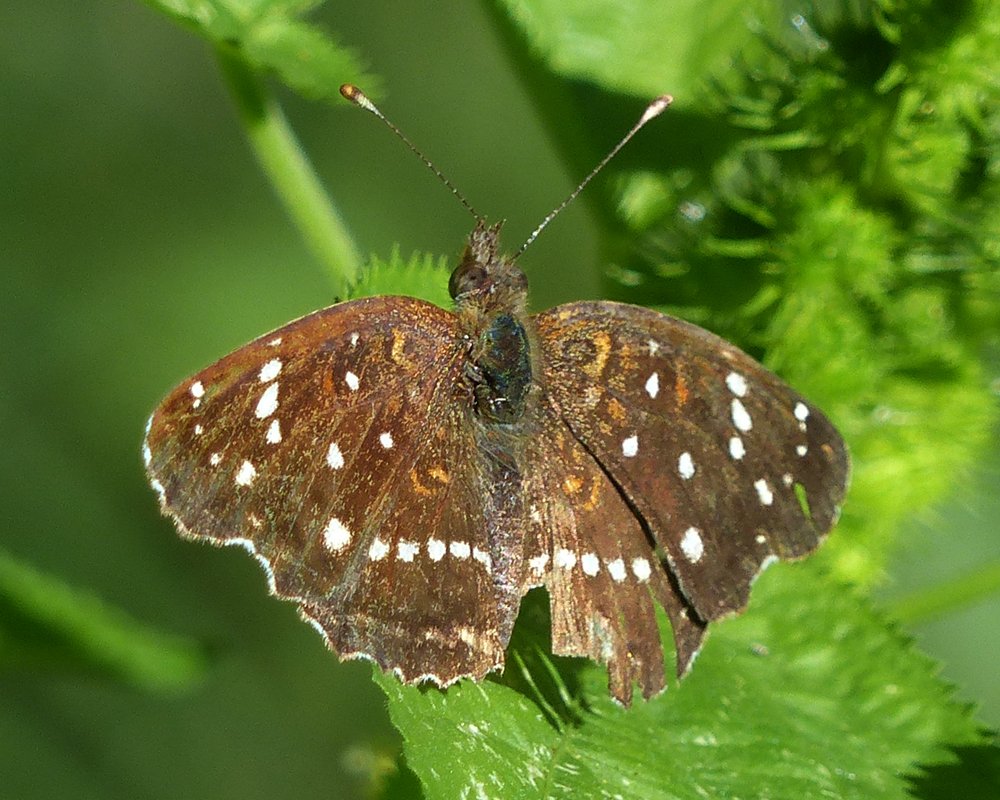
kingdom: Animalia
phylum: Arthropoda
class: Insecta
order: Lepidoptera
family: Nymphalidae
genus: Anthanassa
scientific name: Anthanassa texana
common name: Texan Crescent
